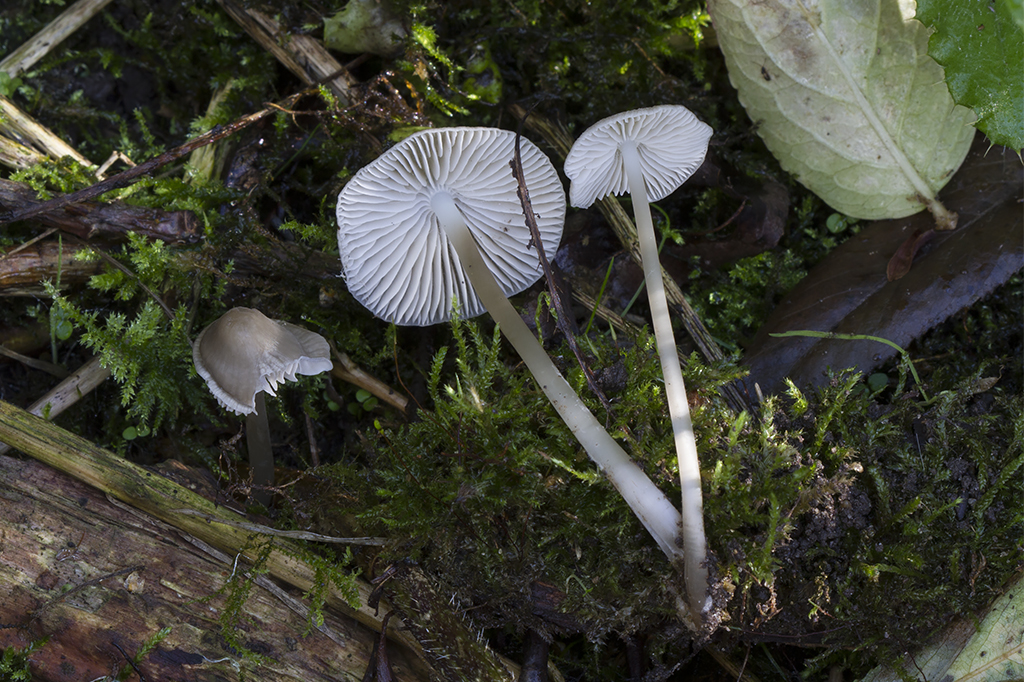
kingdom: Fungi
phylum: Basidiomycota
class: Agaricomycetes
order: Agaricales
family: Mycenaceae
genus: Mycena
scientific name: Mycena galericulata
